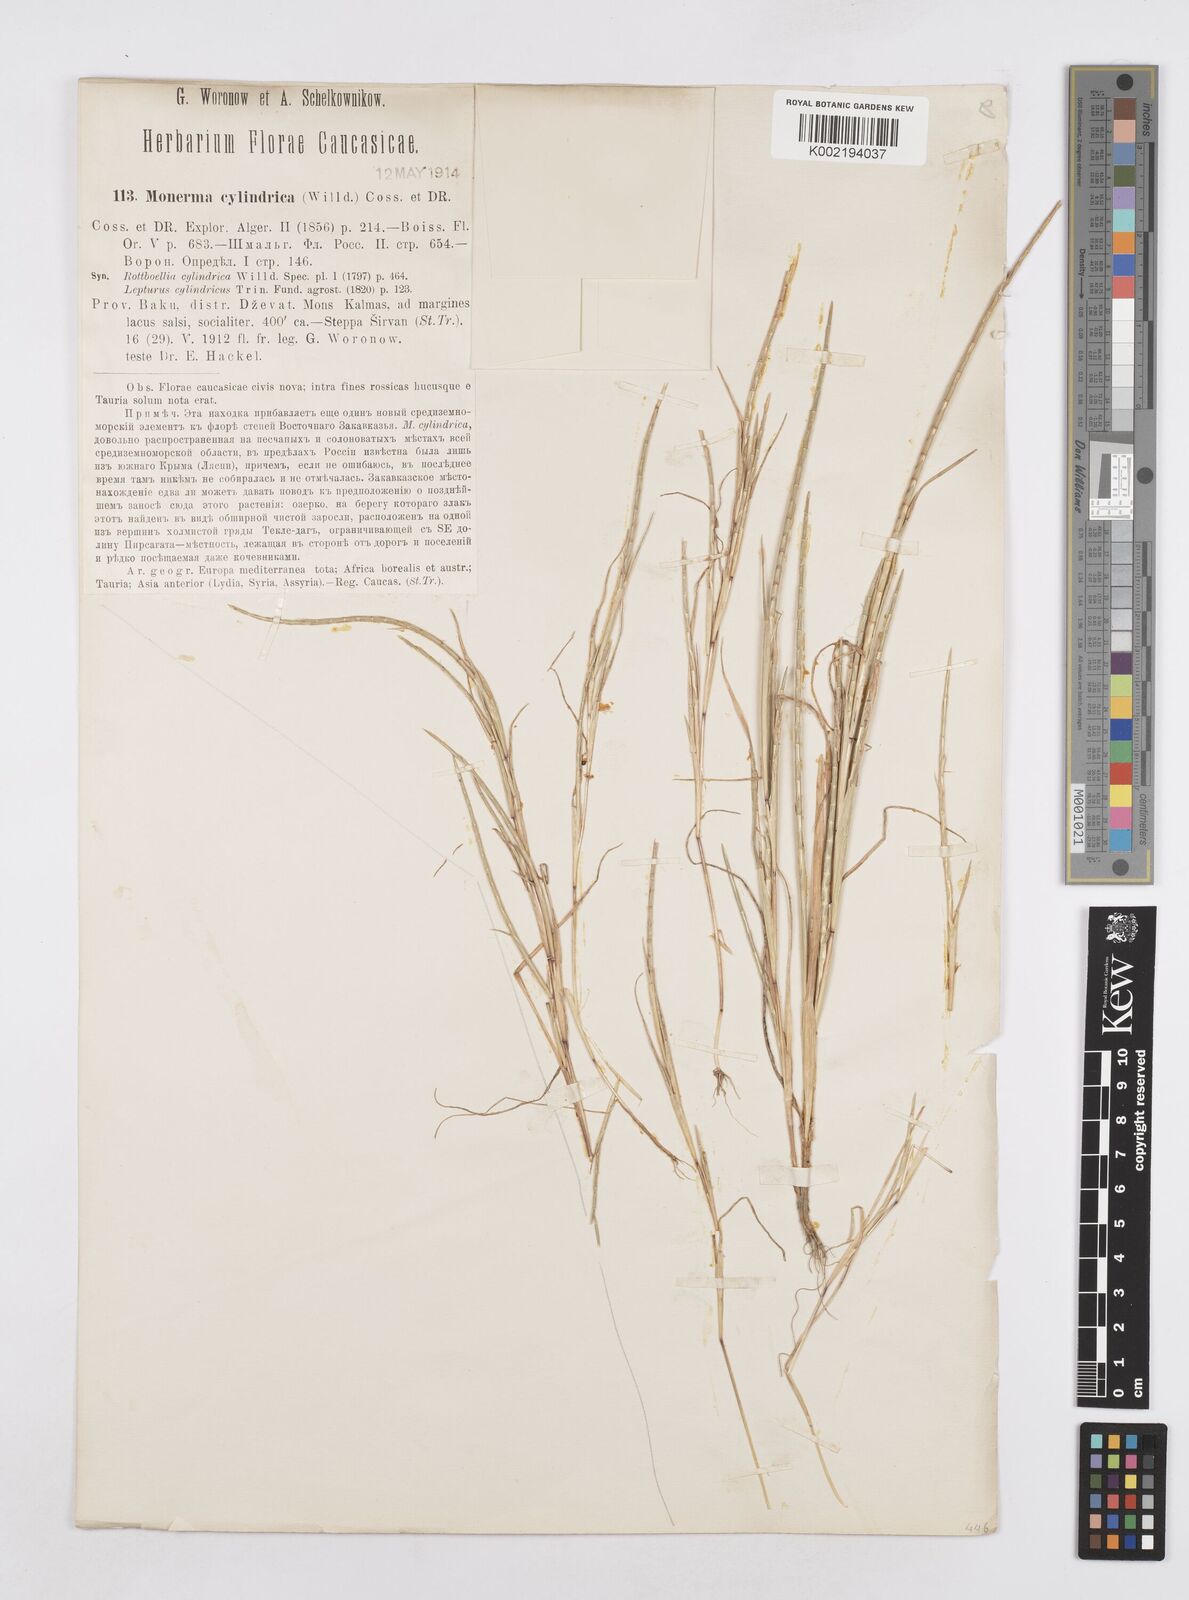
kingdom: Plantae
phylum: Tracheophyta
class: Liliopsida
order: Poales
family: Poaceae
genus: Parapholis
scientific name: Parapholis incurva
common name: Curved sicklegrass
